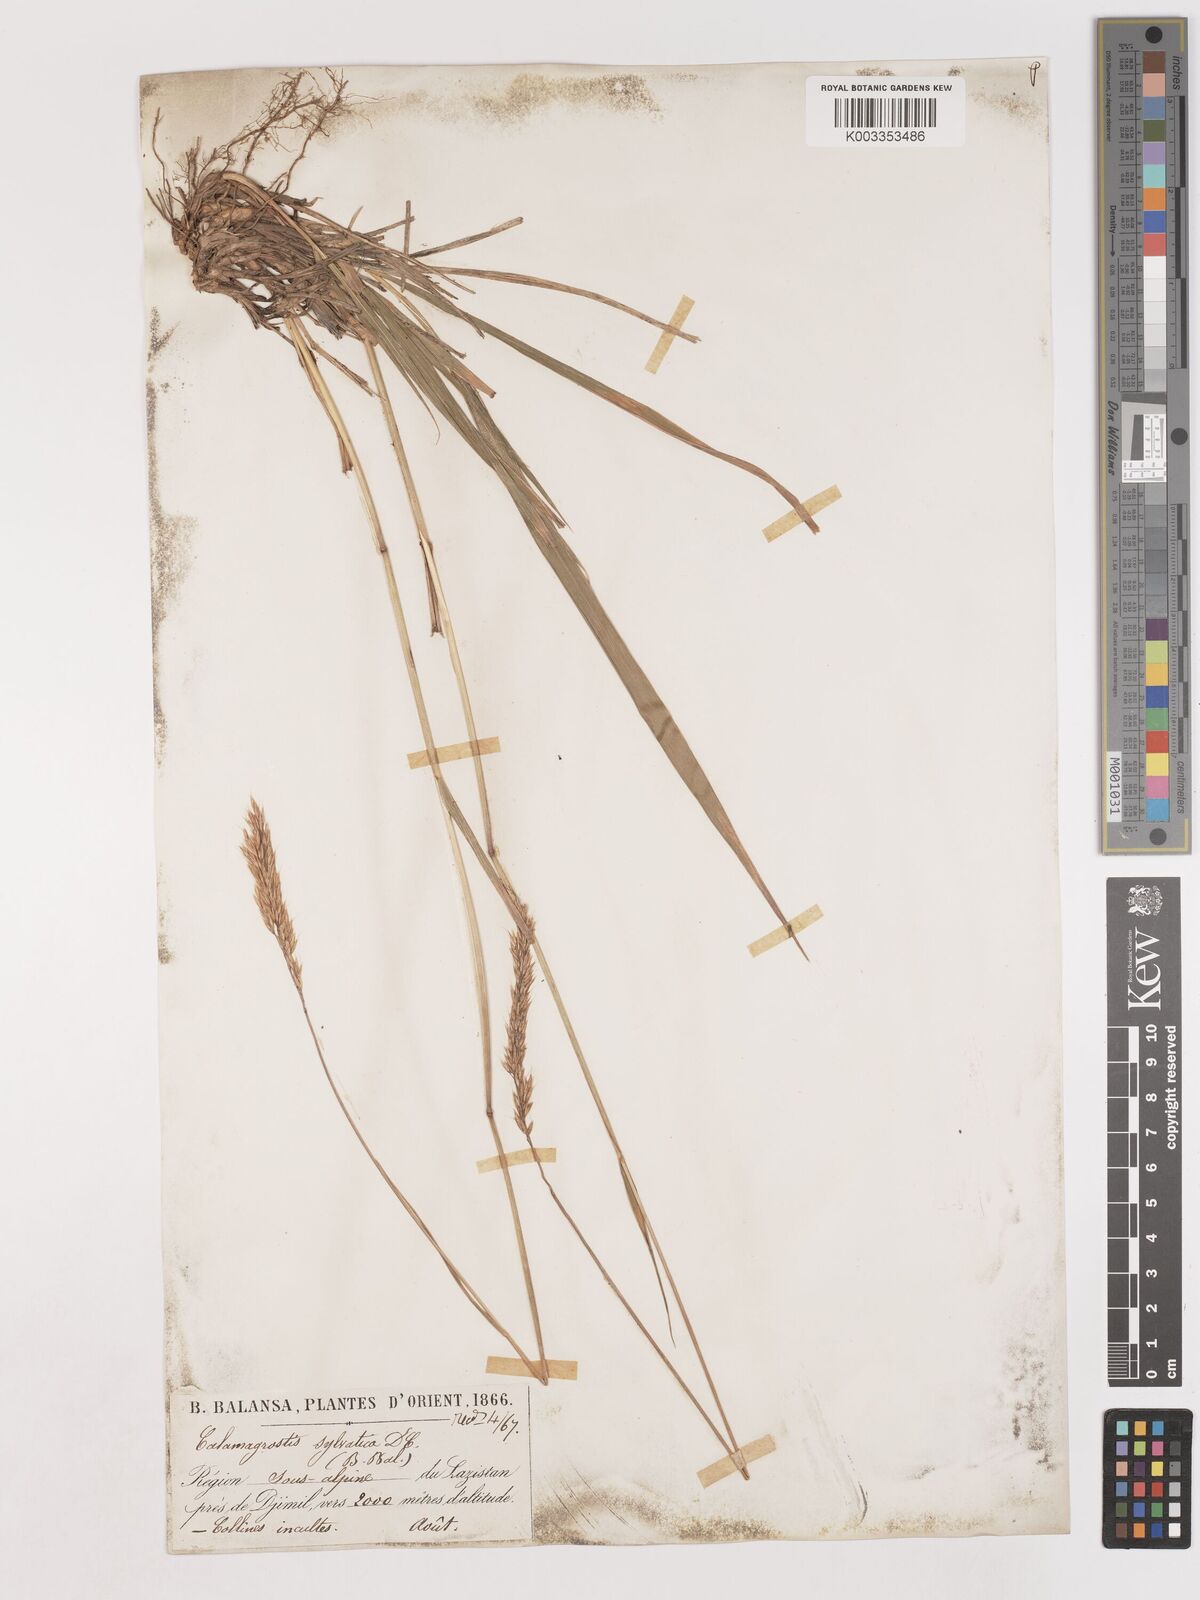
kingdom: Plantae
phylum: Tracheophyta
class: Liliopsida
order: Poales
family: Poaceae
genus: Calamagrostis
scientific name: Calamagrostis
